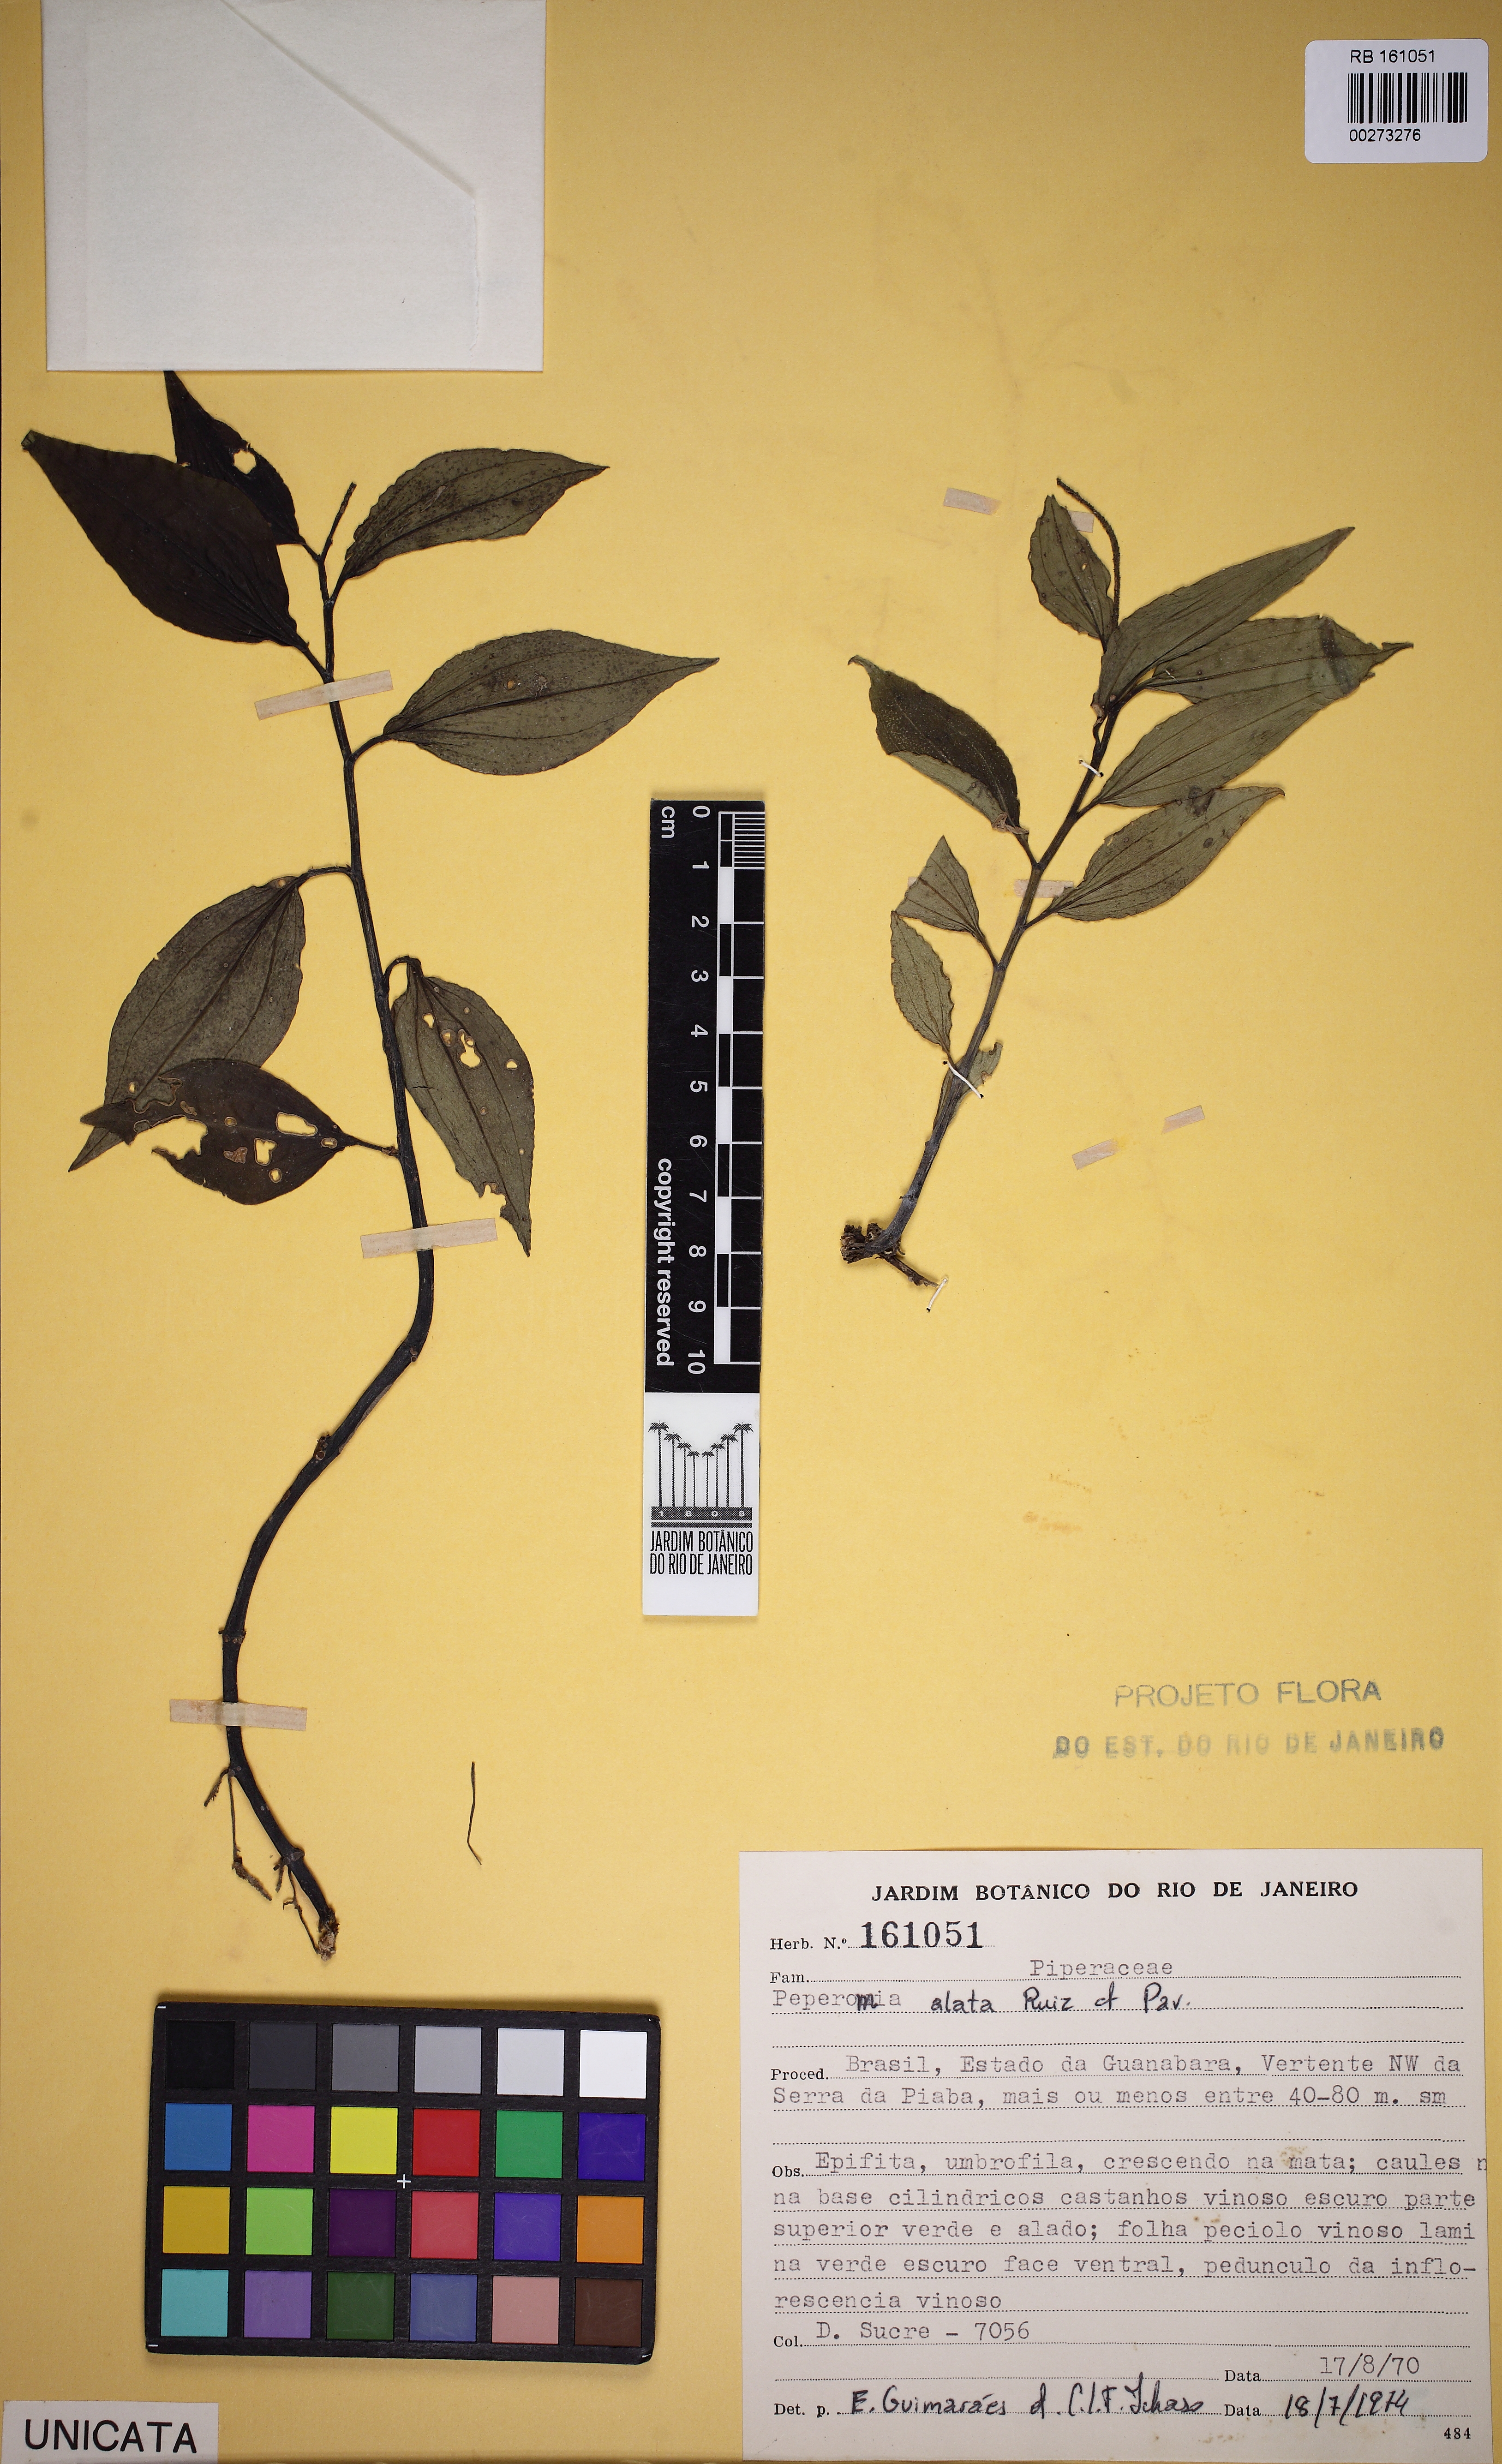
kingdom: Plantae
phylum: Tracheophyta
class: Magnoliopsida
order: Piperales
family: Piperaceae
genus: Peperomia
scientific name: Peperomia alata
